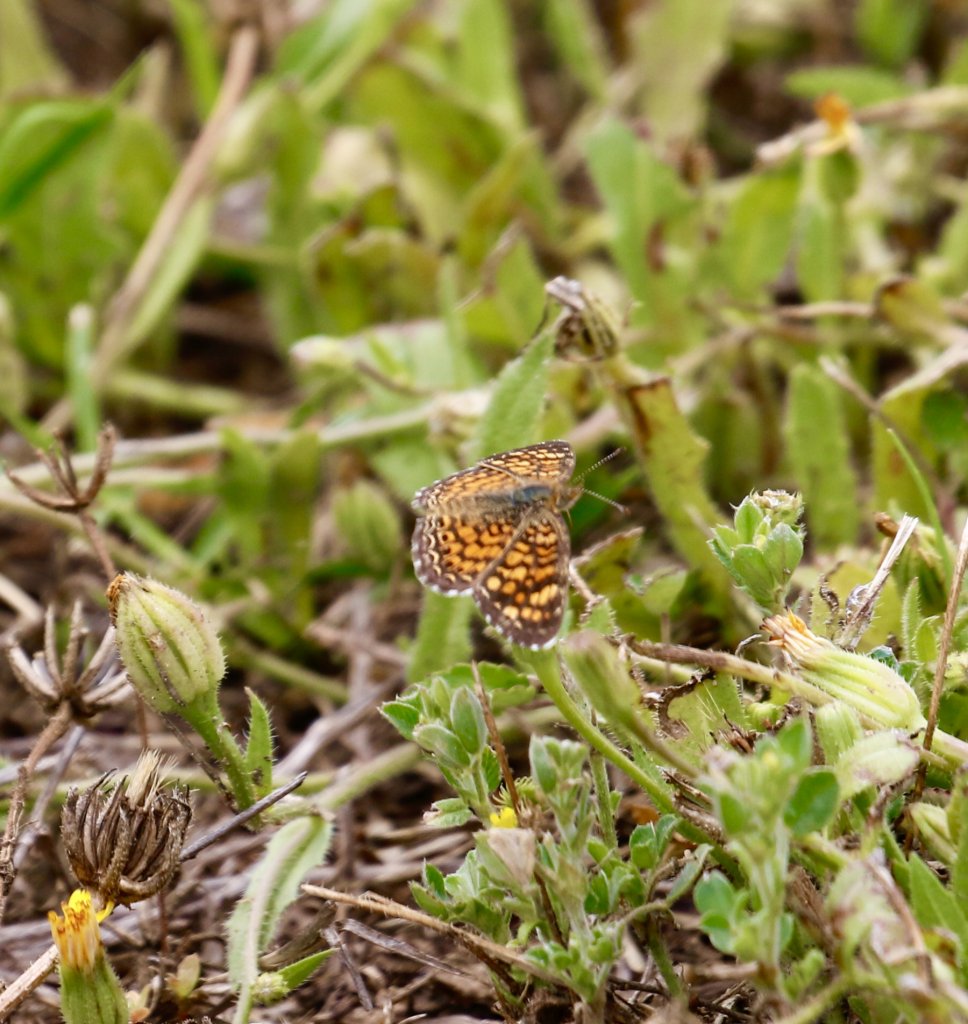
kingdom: Animalia
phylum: Arthropoda
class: Insecta
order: Lepidoptera
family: Nymphalidae
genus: Phyciodes
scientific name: Phyciodes vesta
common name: Vesta Crescent
